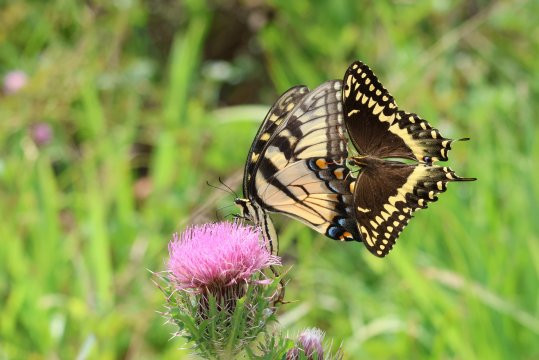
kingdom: Animalia
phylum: Arthropoda
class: Insecta
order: Lepidoptera
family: Papilionidae
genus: Pterourus
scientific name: Pterourus palamedes
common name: Palamedes Swallowtail
